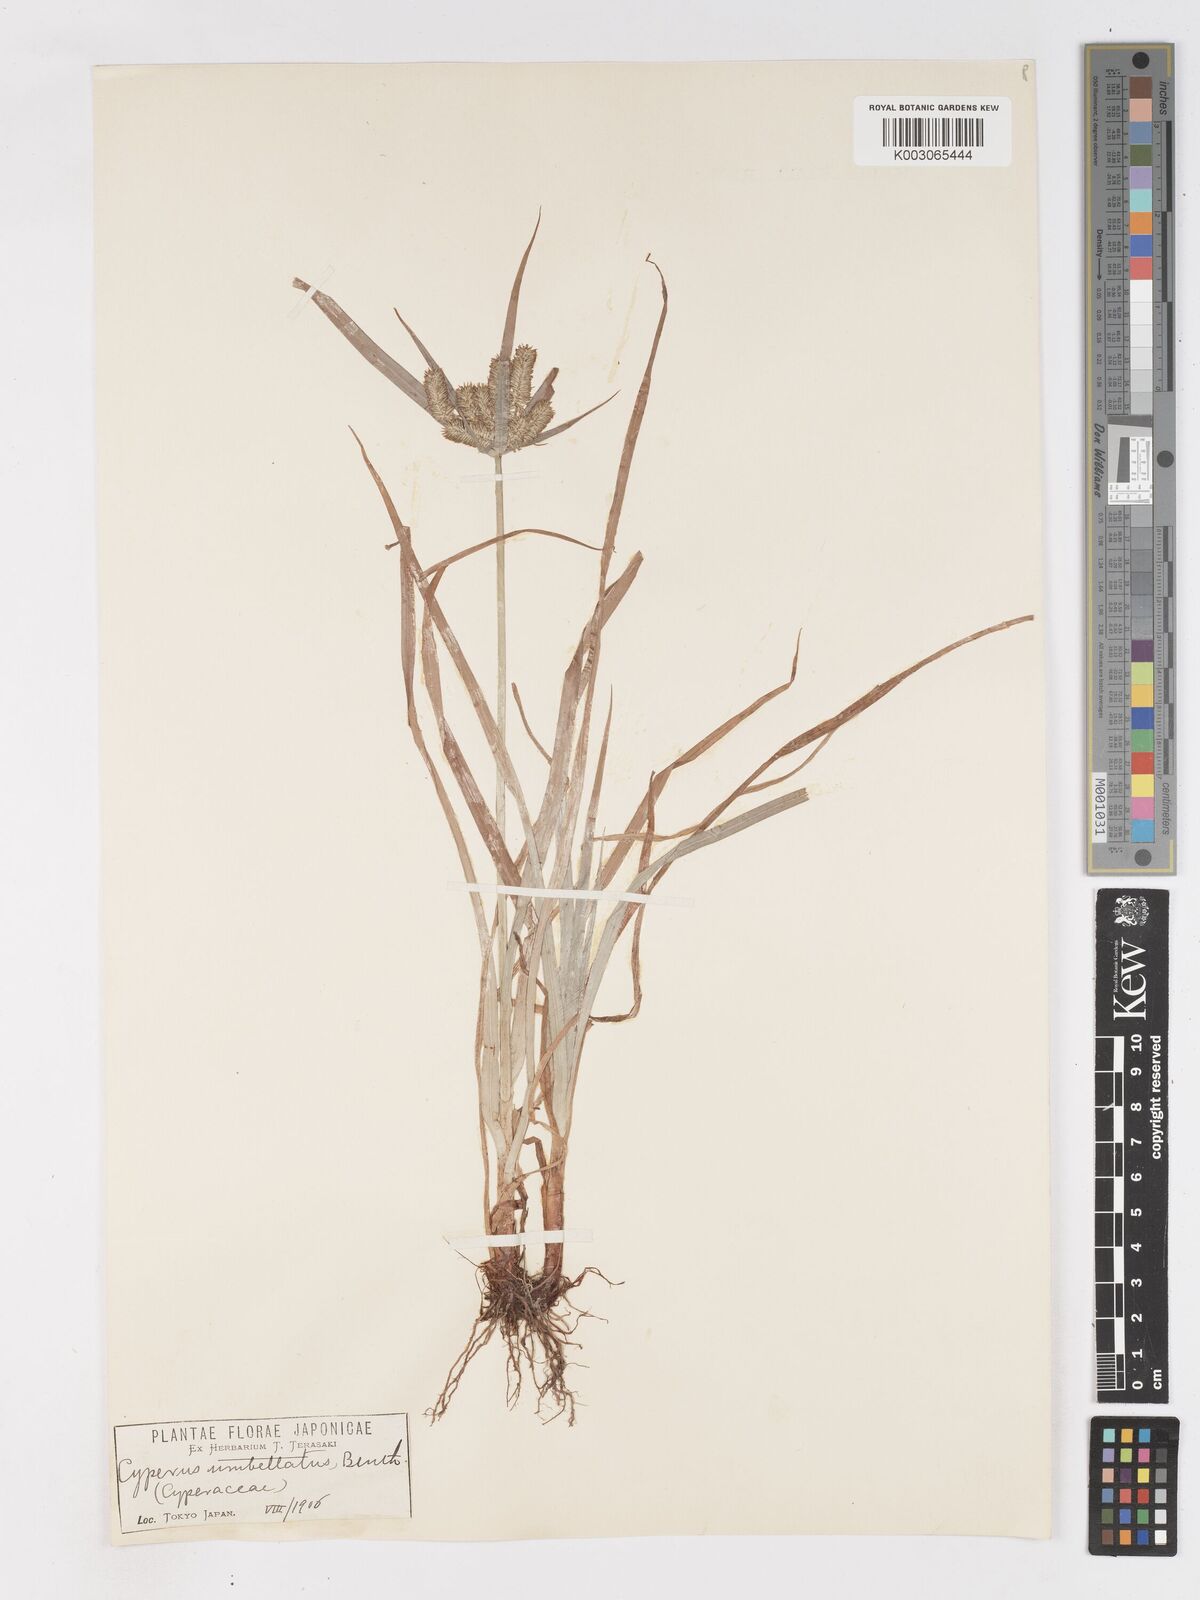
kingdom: Plantae
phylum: Tracheophyta
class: Liliopsida
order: Poales
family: Cyperaceae
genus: Cyperus
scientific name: Cyperus cyperinus
